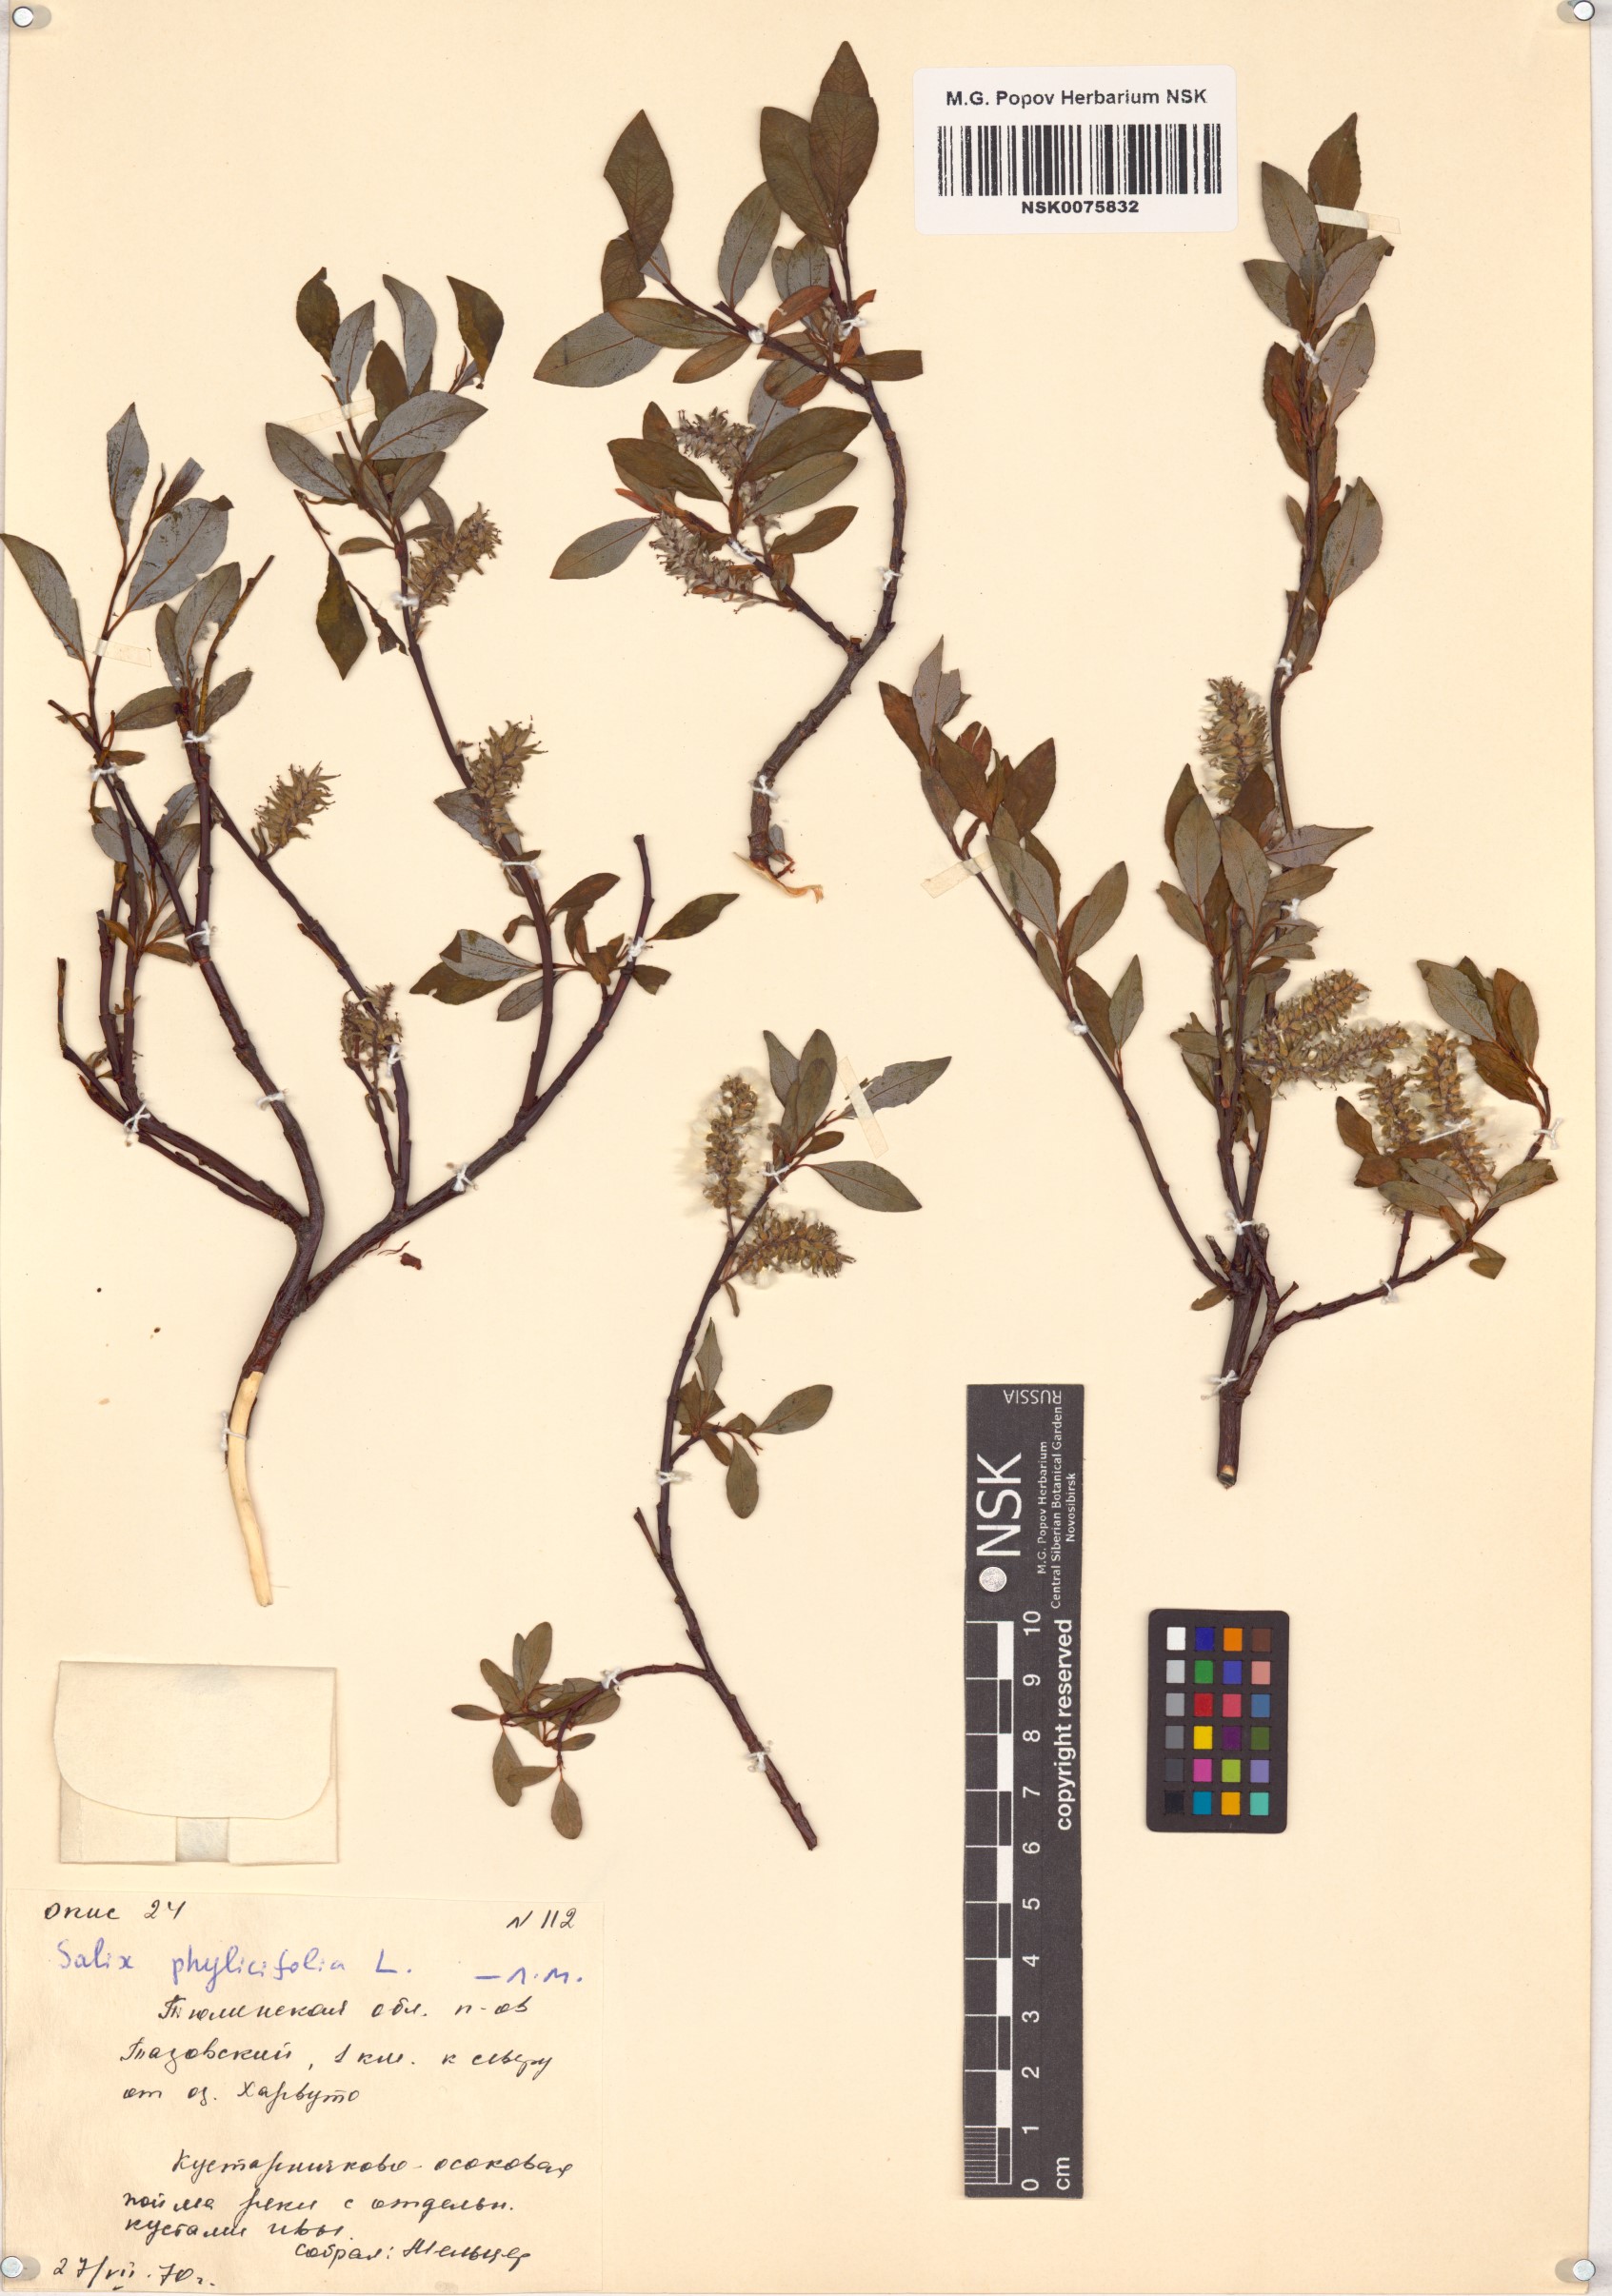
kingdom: Plantae
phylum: Tracheophyta
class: Magnoliopsida
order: Malpighiales
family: Salicaceae
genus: Salix
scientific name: Salix phylicifolia
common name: Tea-leaved willow
